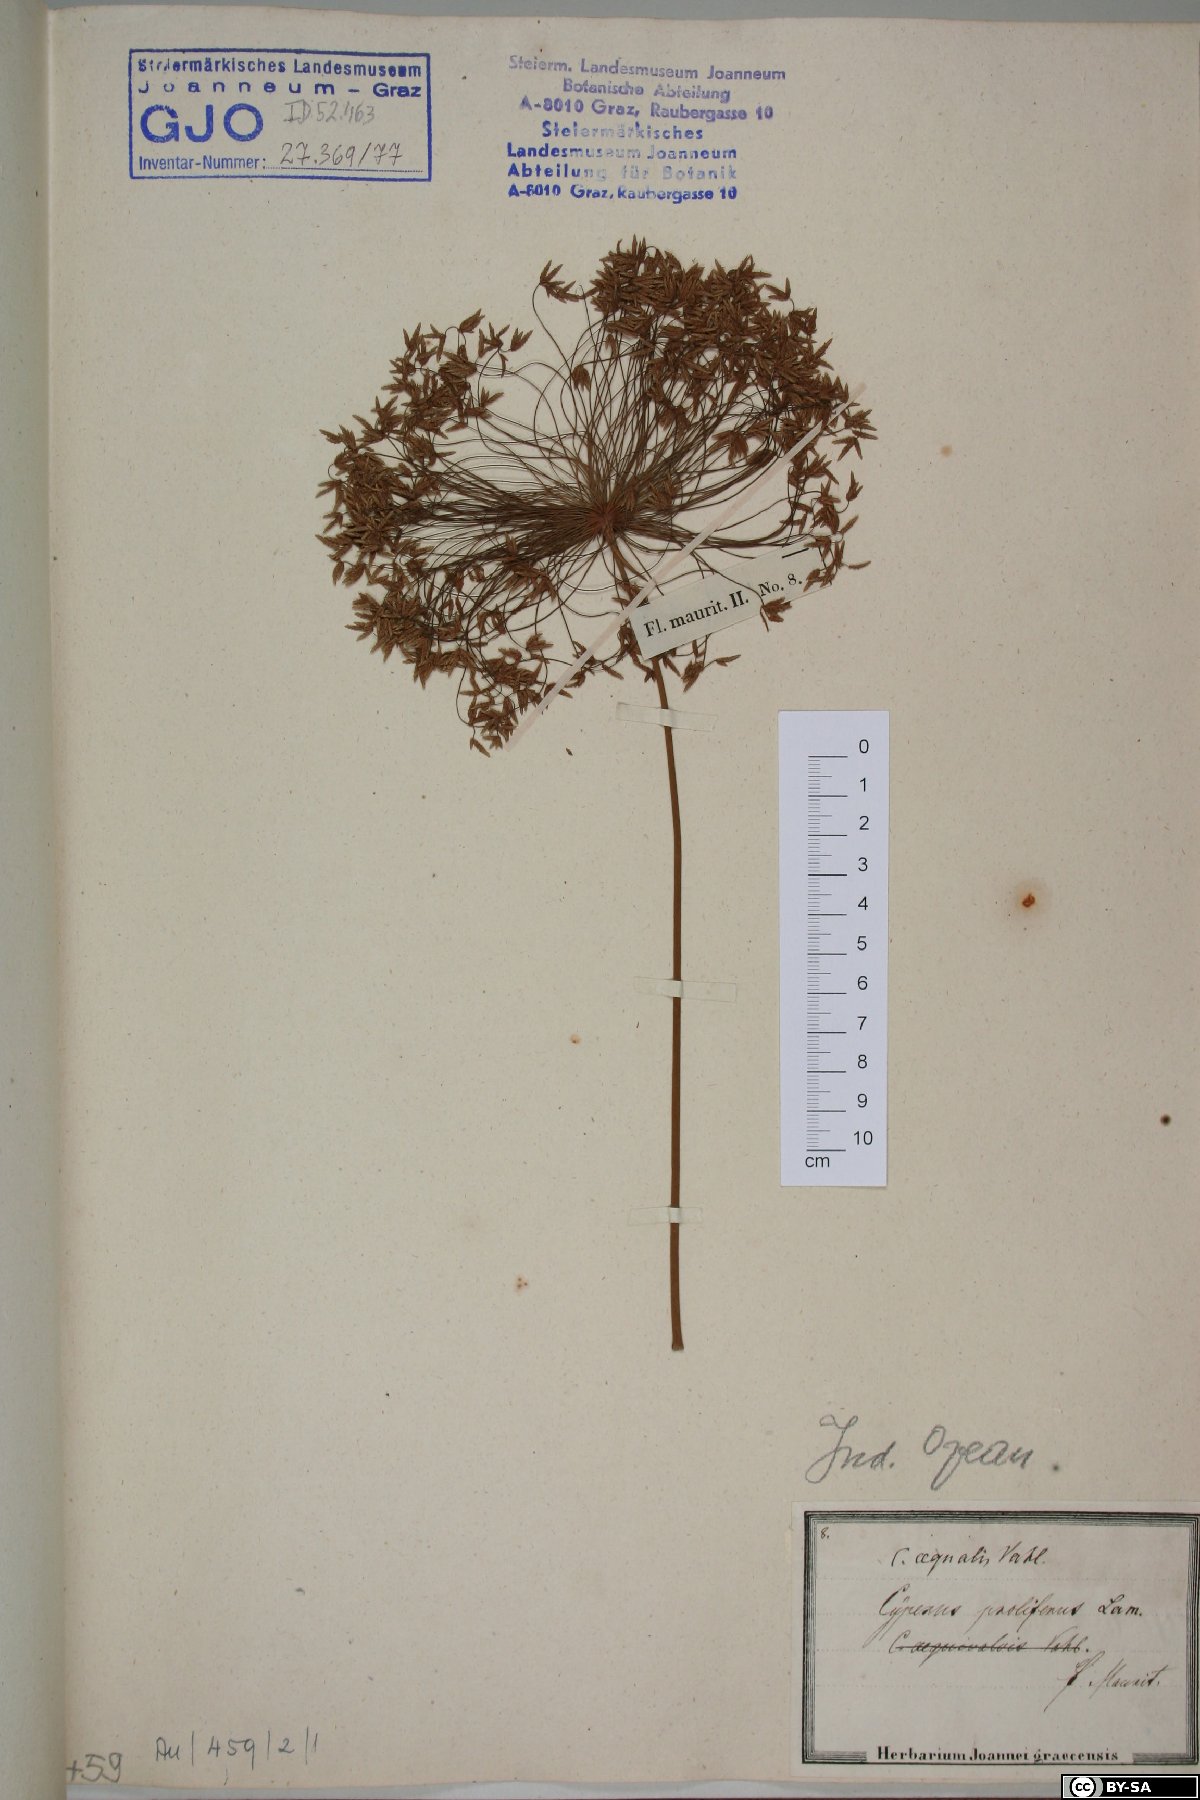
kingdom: Plantae
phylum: Tracheophyta
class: Liliopsida
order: Poales
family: Cyperaceae
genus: Cyperus
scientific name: Cyperus prolifer
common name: Miniature flatsedge
